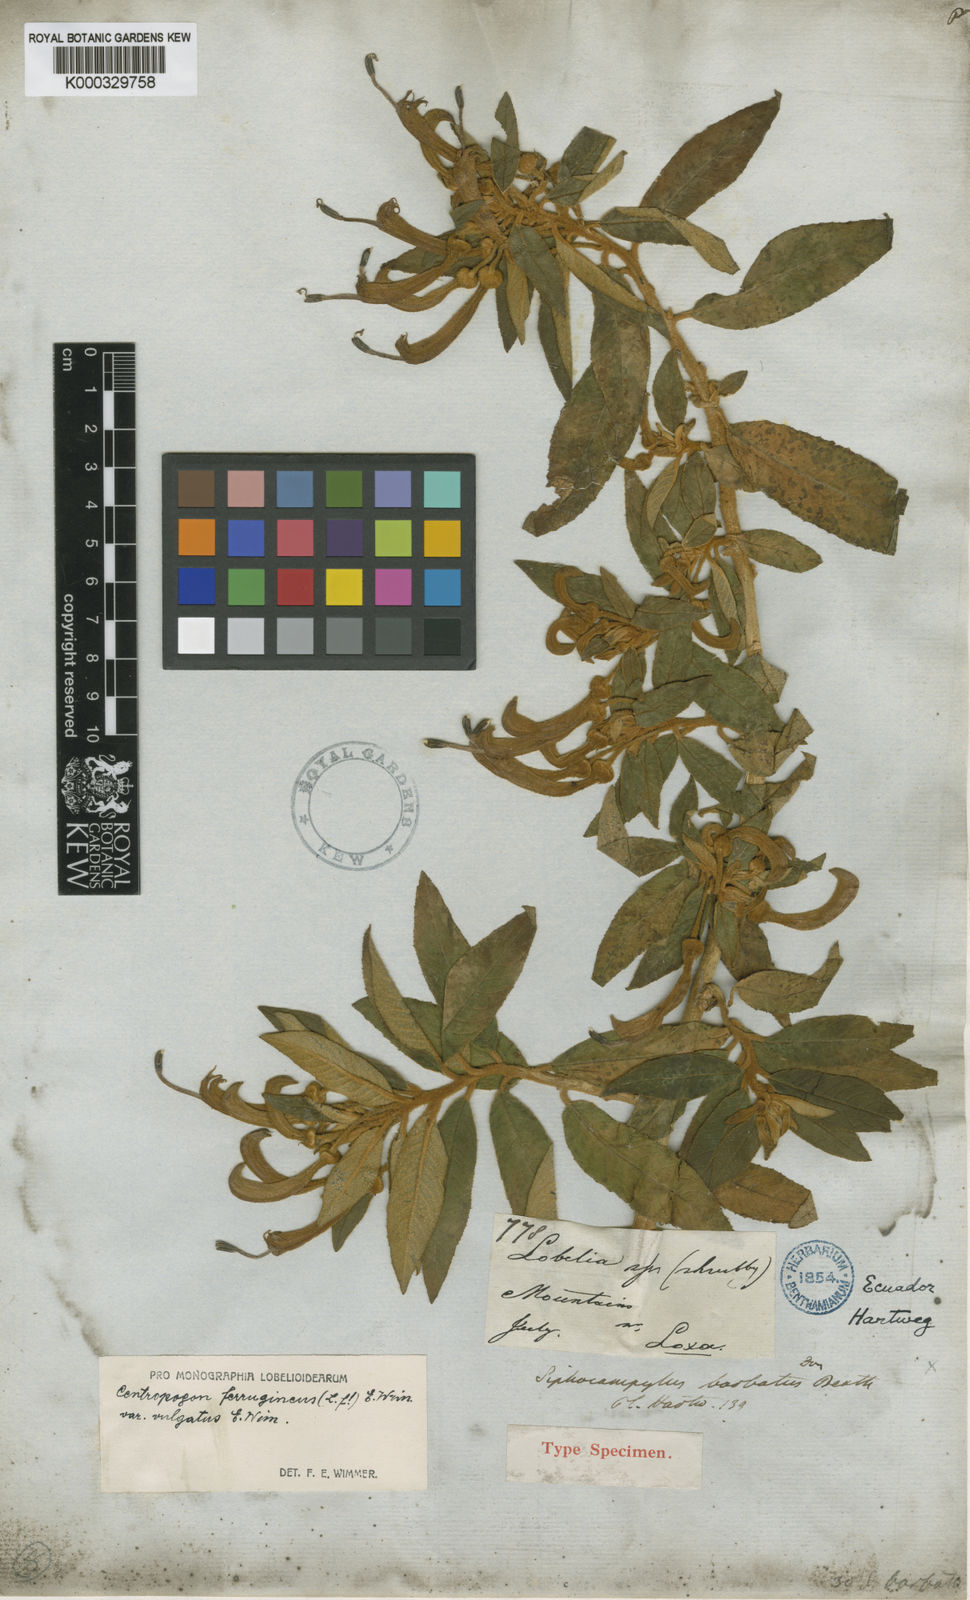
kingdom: Plantae
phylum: Tracheophyta
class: Magnoliopsida
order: Asterales
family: Campanulaceae
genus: Centropogon
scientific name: Centropogon ferrugineus
